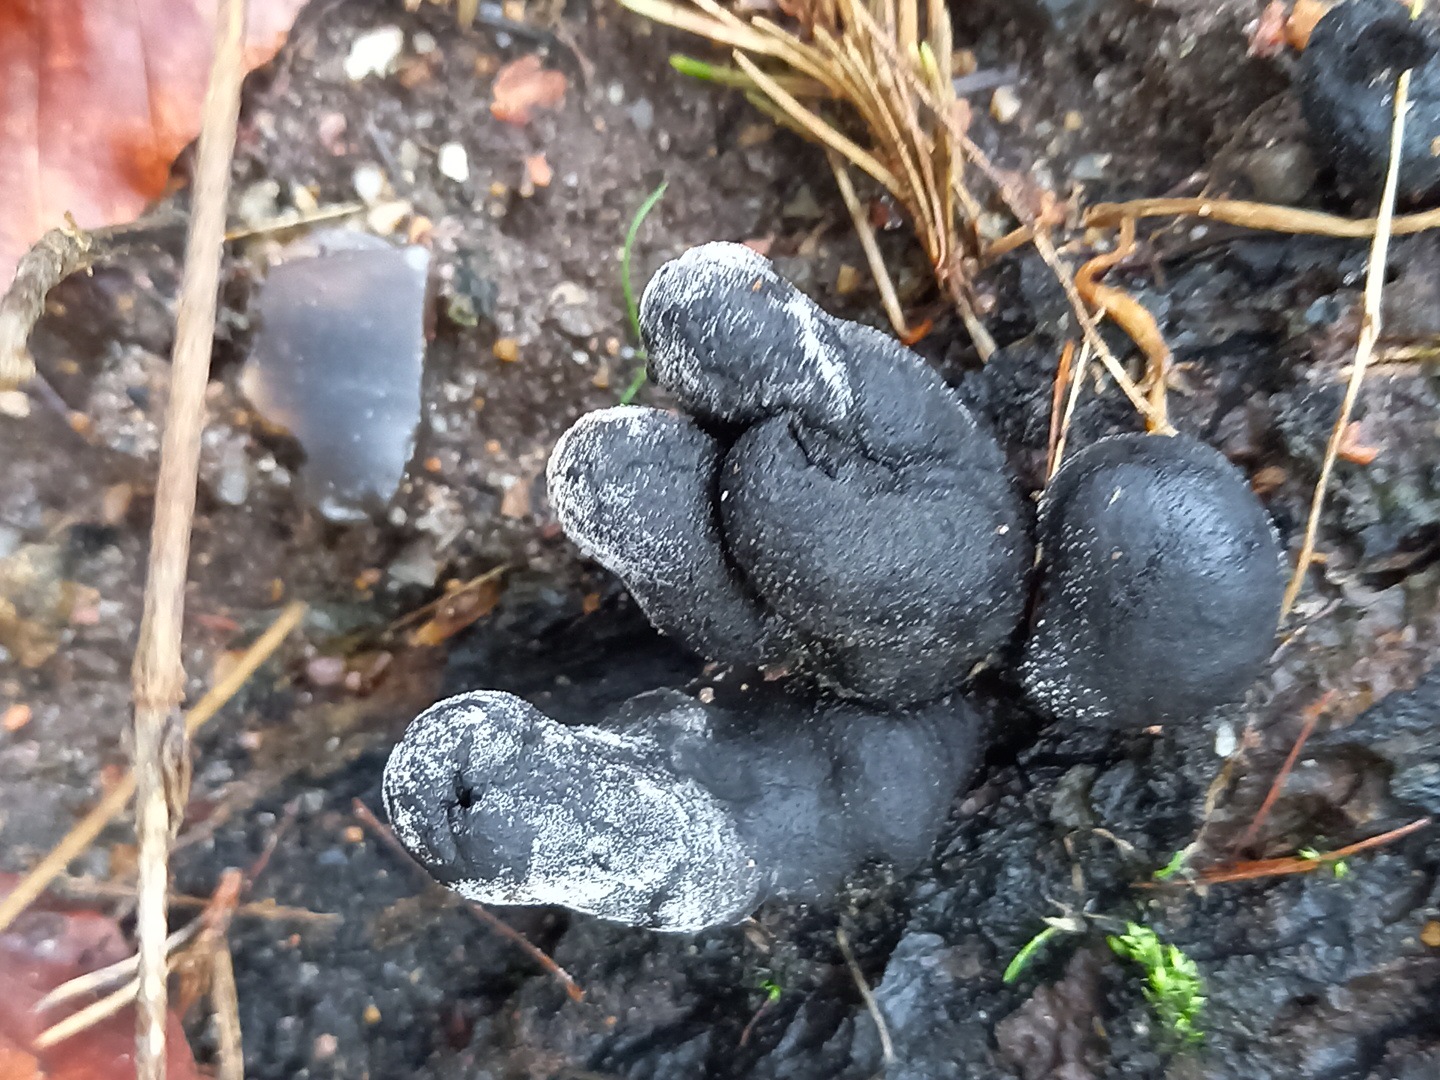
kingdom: Fungi
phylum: Ascomycota
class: Sordariomycetes
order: Xylariales
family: Xylariaceae
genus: Xylaria
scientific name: Xylaria polymorpha
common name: kølle-stødsvamp
